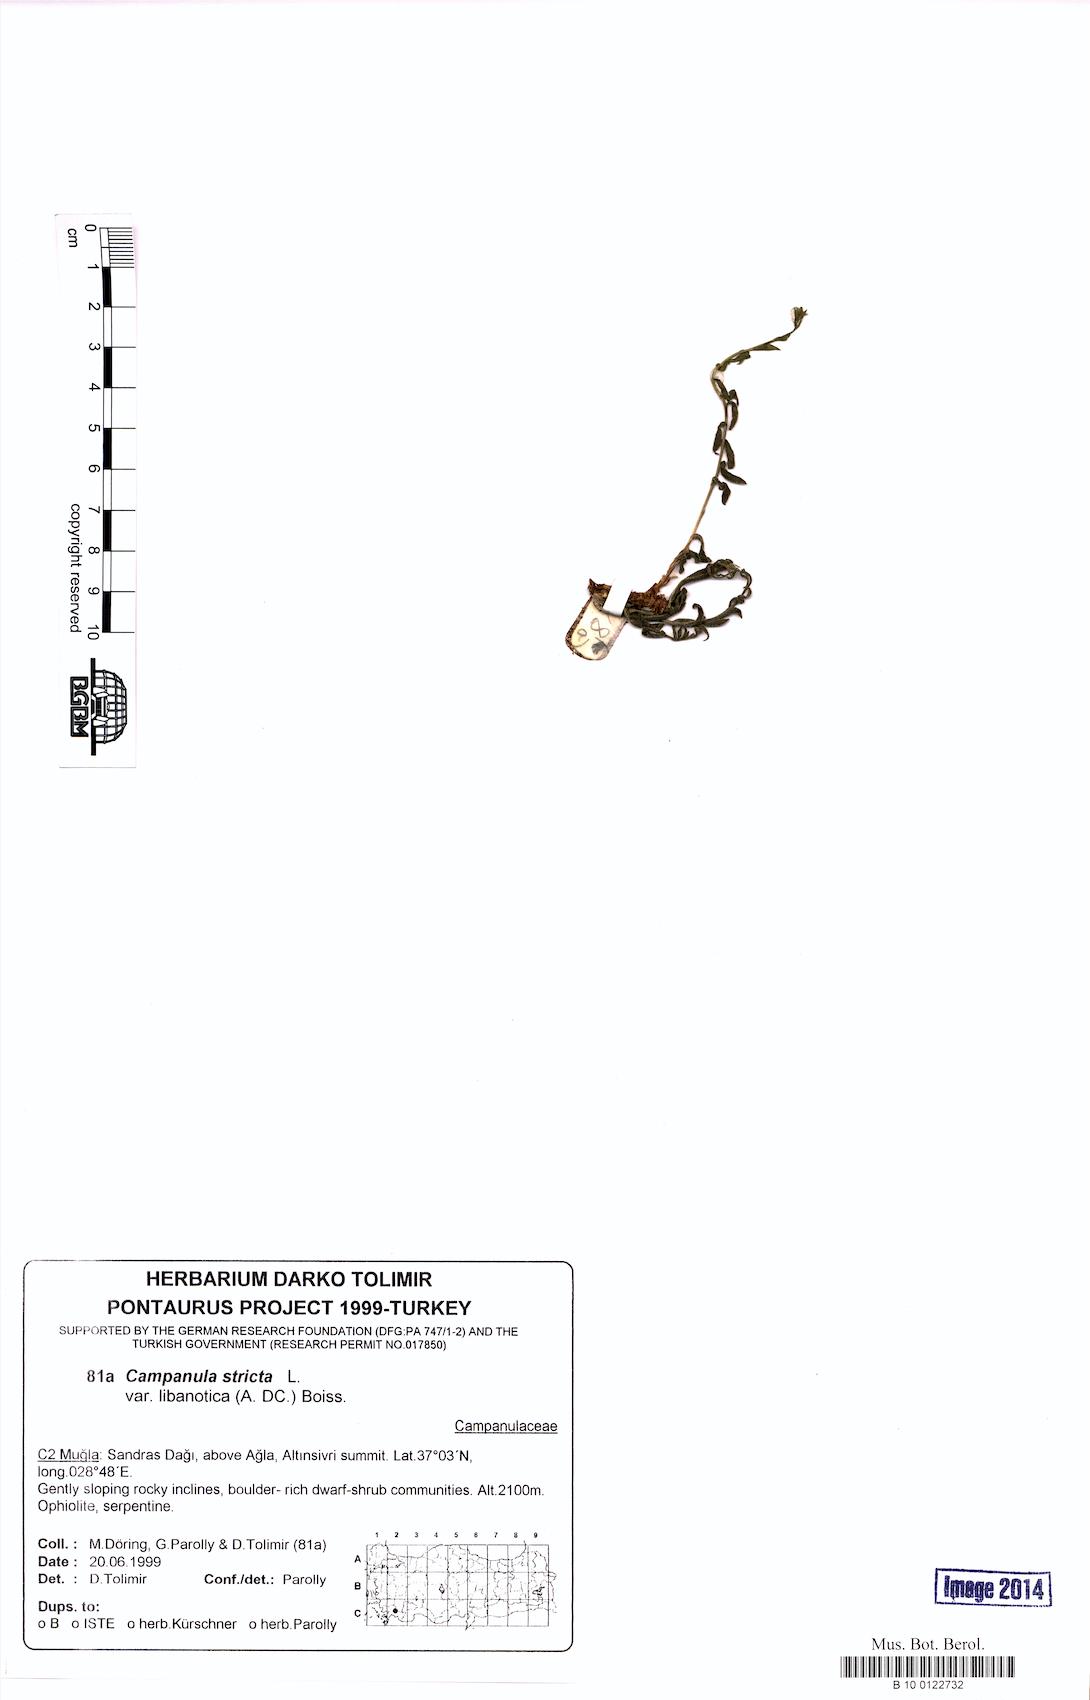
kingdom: Plantae
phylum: Tracheophyta
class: Magnoliopsida
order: Asterales
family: Campanulaceae
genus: Campanula
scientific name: Campanula stricta
